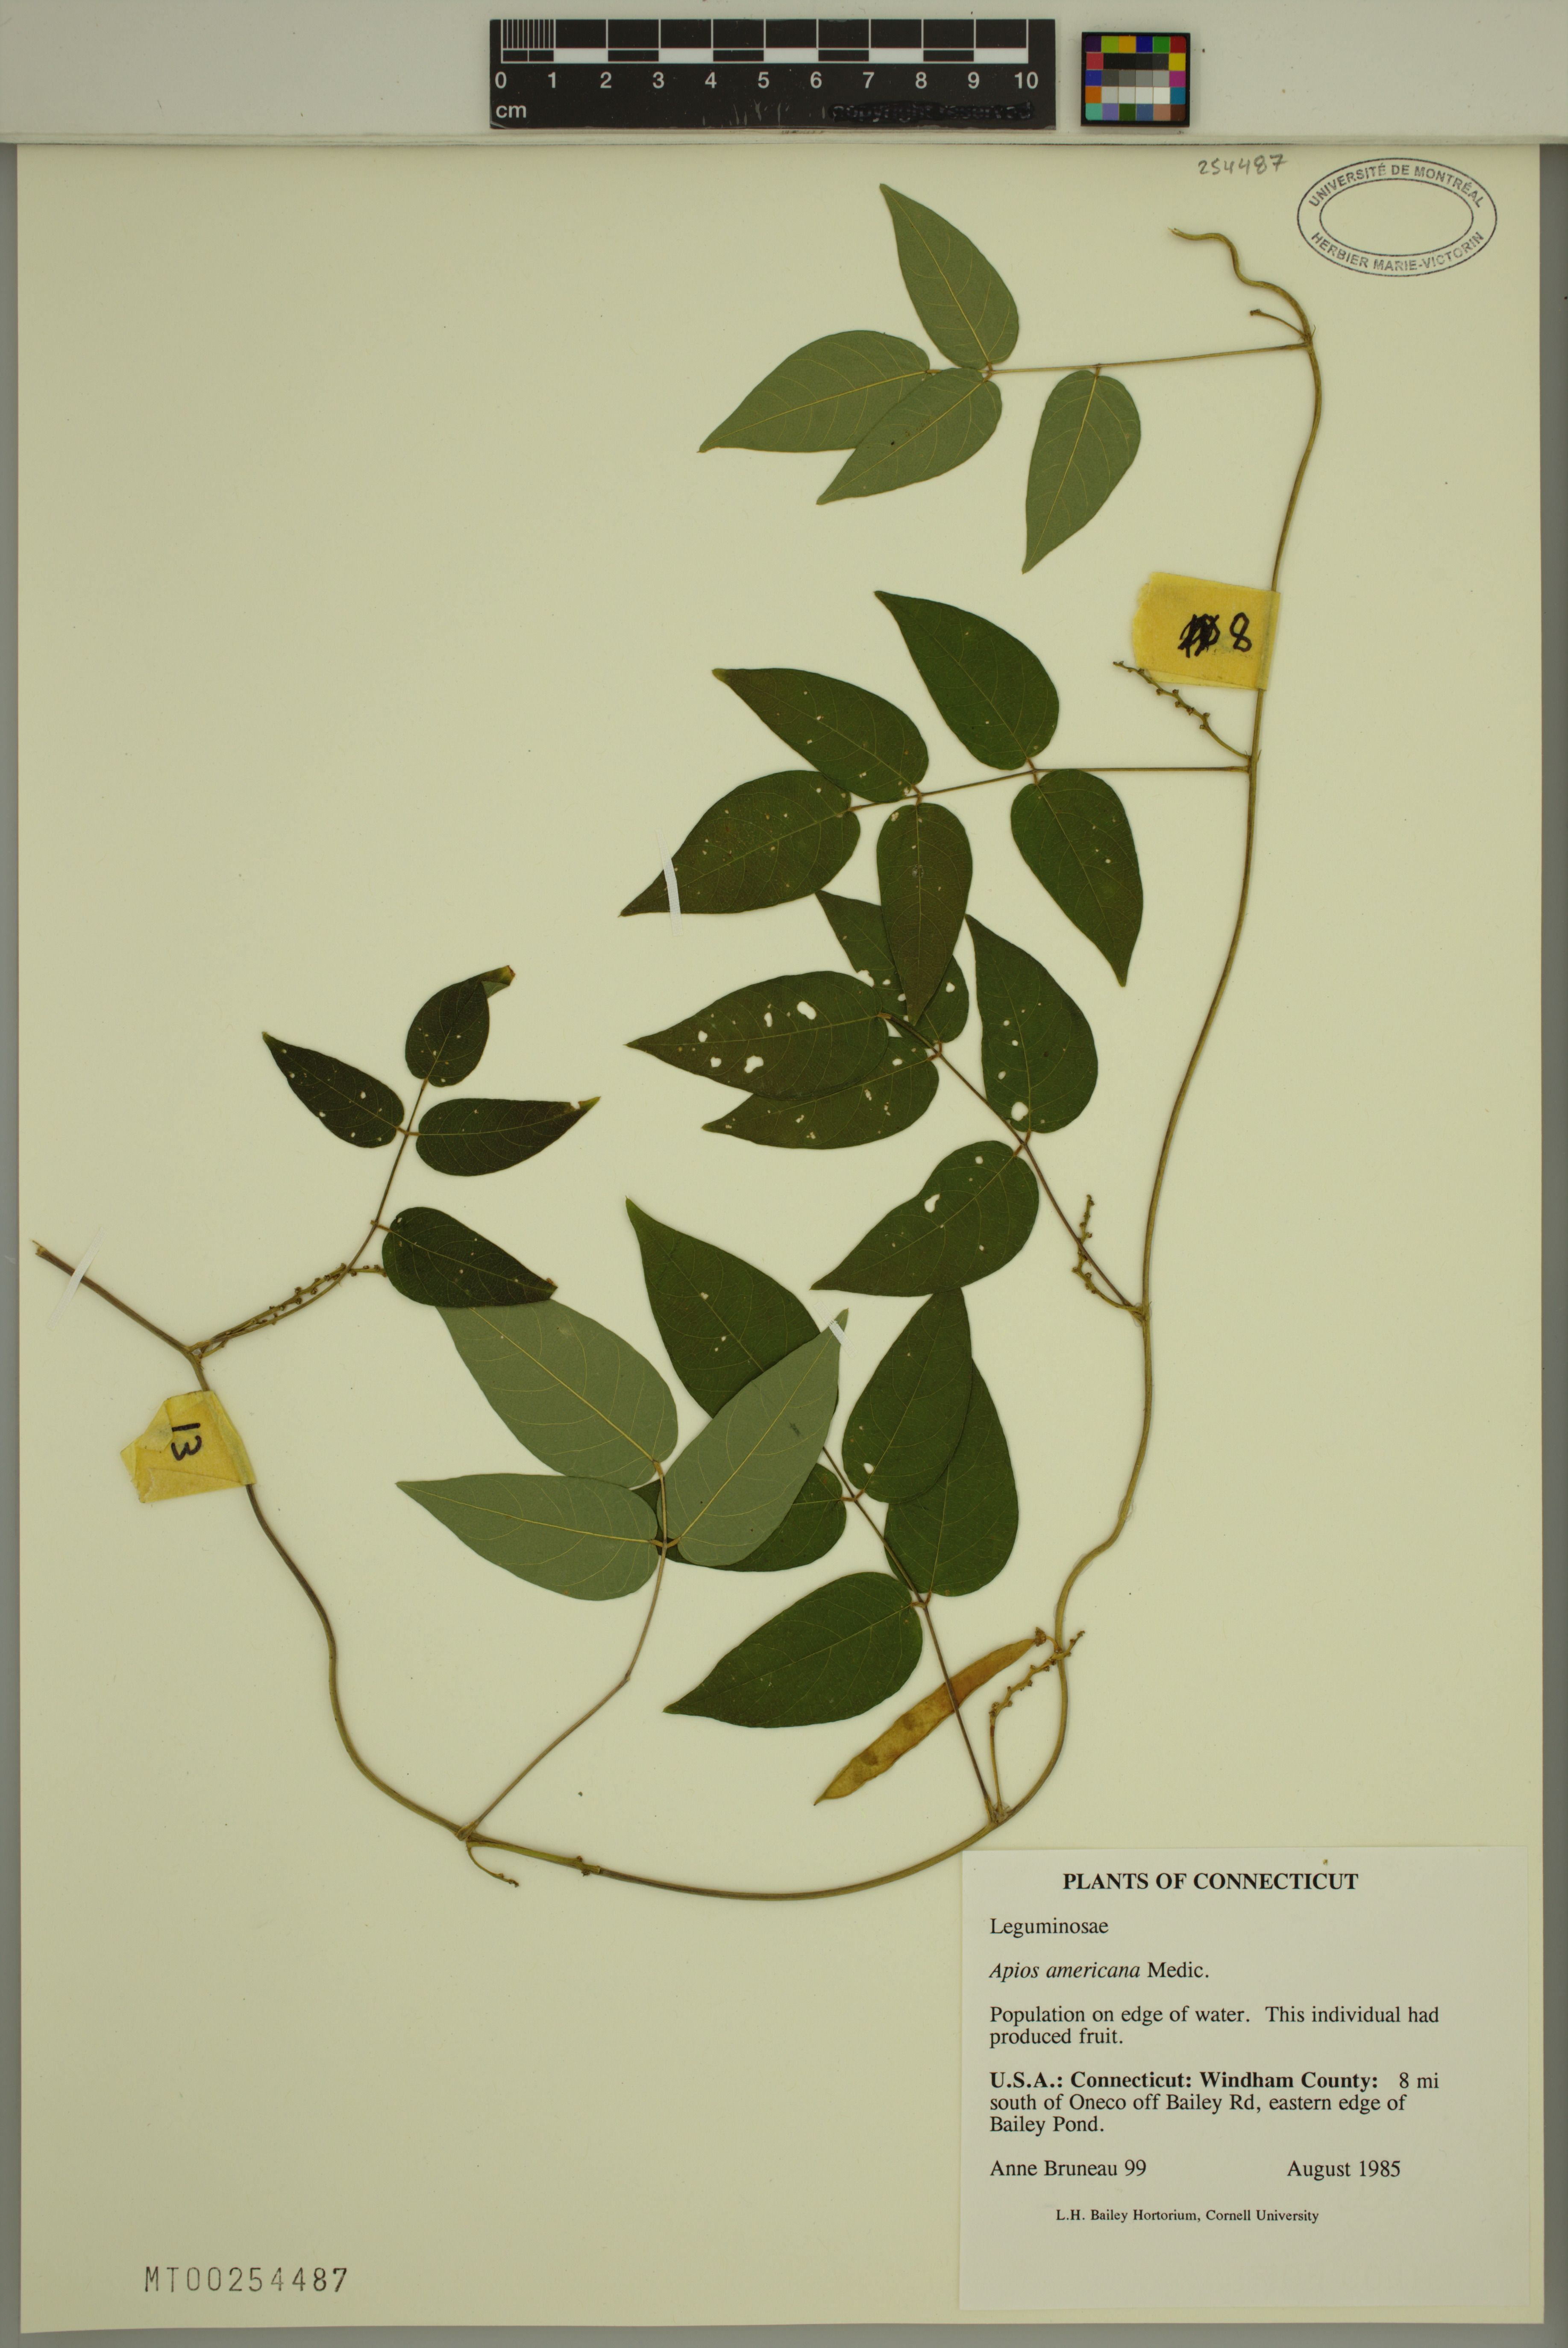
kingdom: Plantae
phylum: Tracheophyta
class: Magnoliopsida
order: Fabales
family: Fabaceae
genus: Apios
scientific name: Apios americana
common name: American potato-bean
